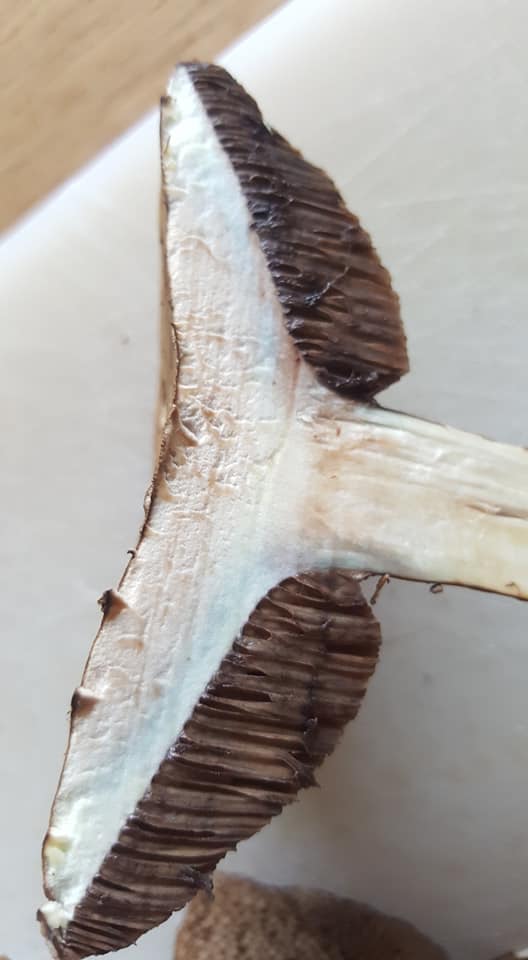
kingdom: Fungi
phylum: Basidiomycota
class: Agaricomycetes
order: Boletales
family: Boletaceae
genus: Porphyrellus
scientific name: Porphyrellus porphyrosporus
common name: sodrørhat
